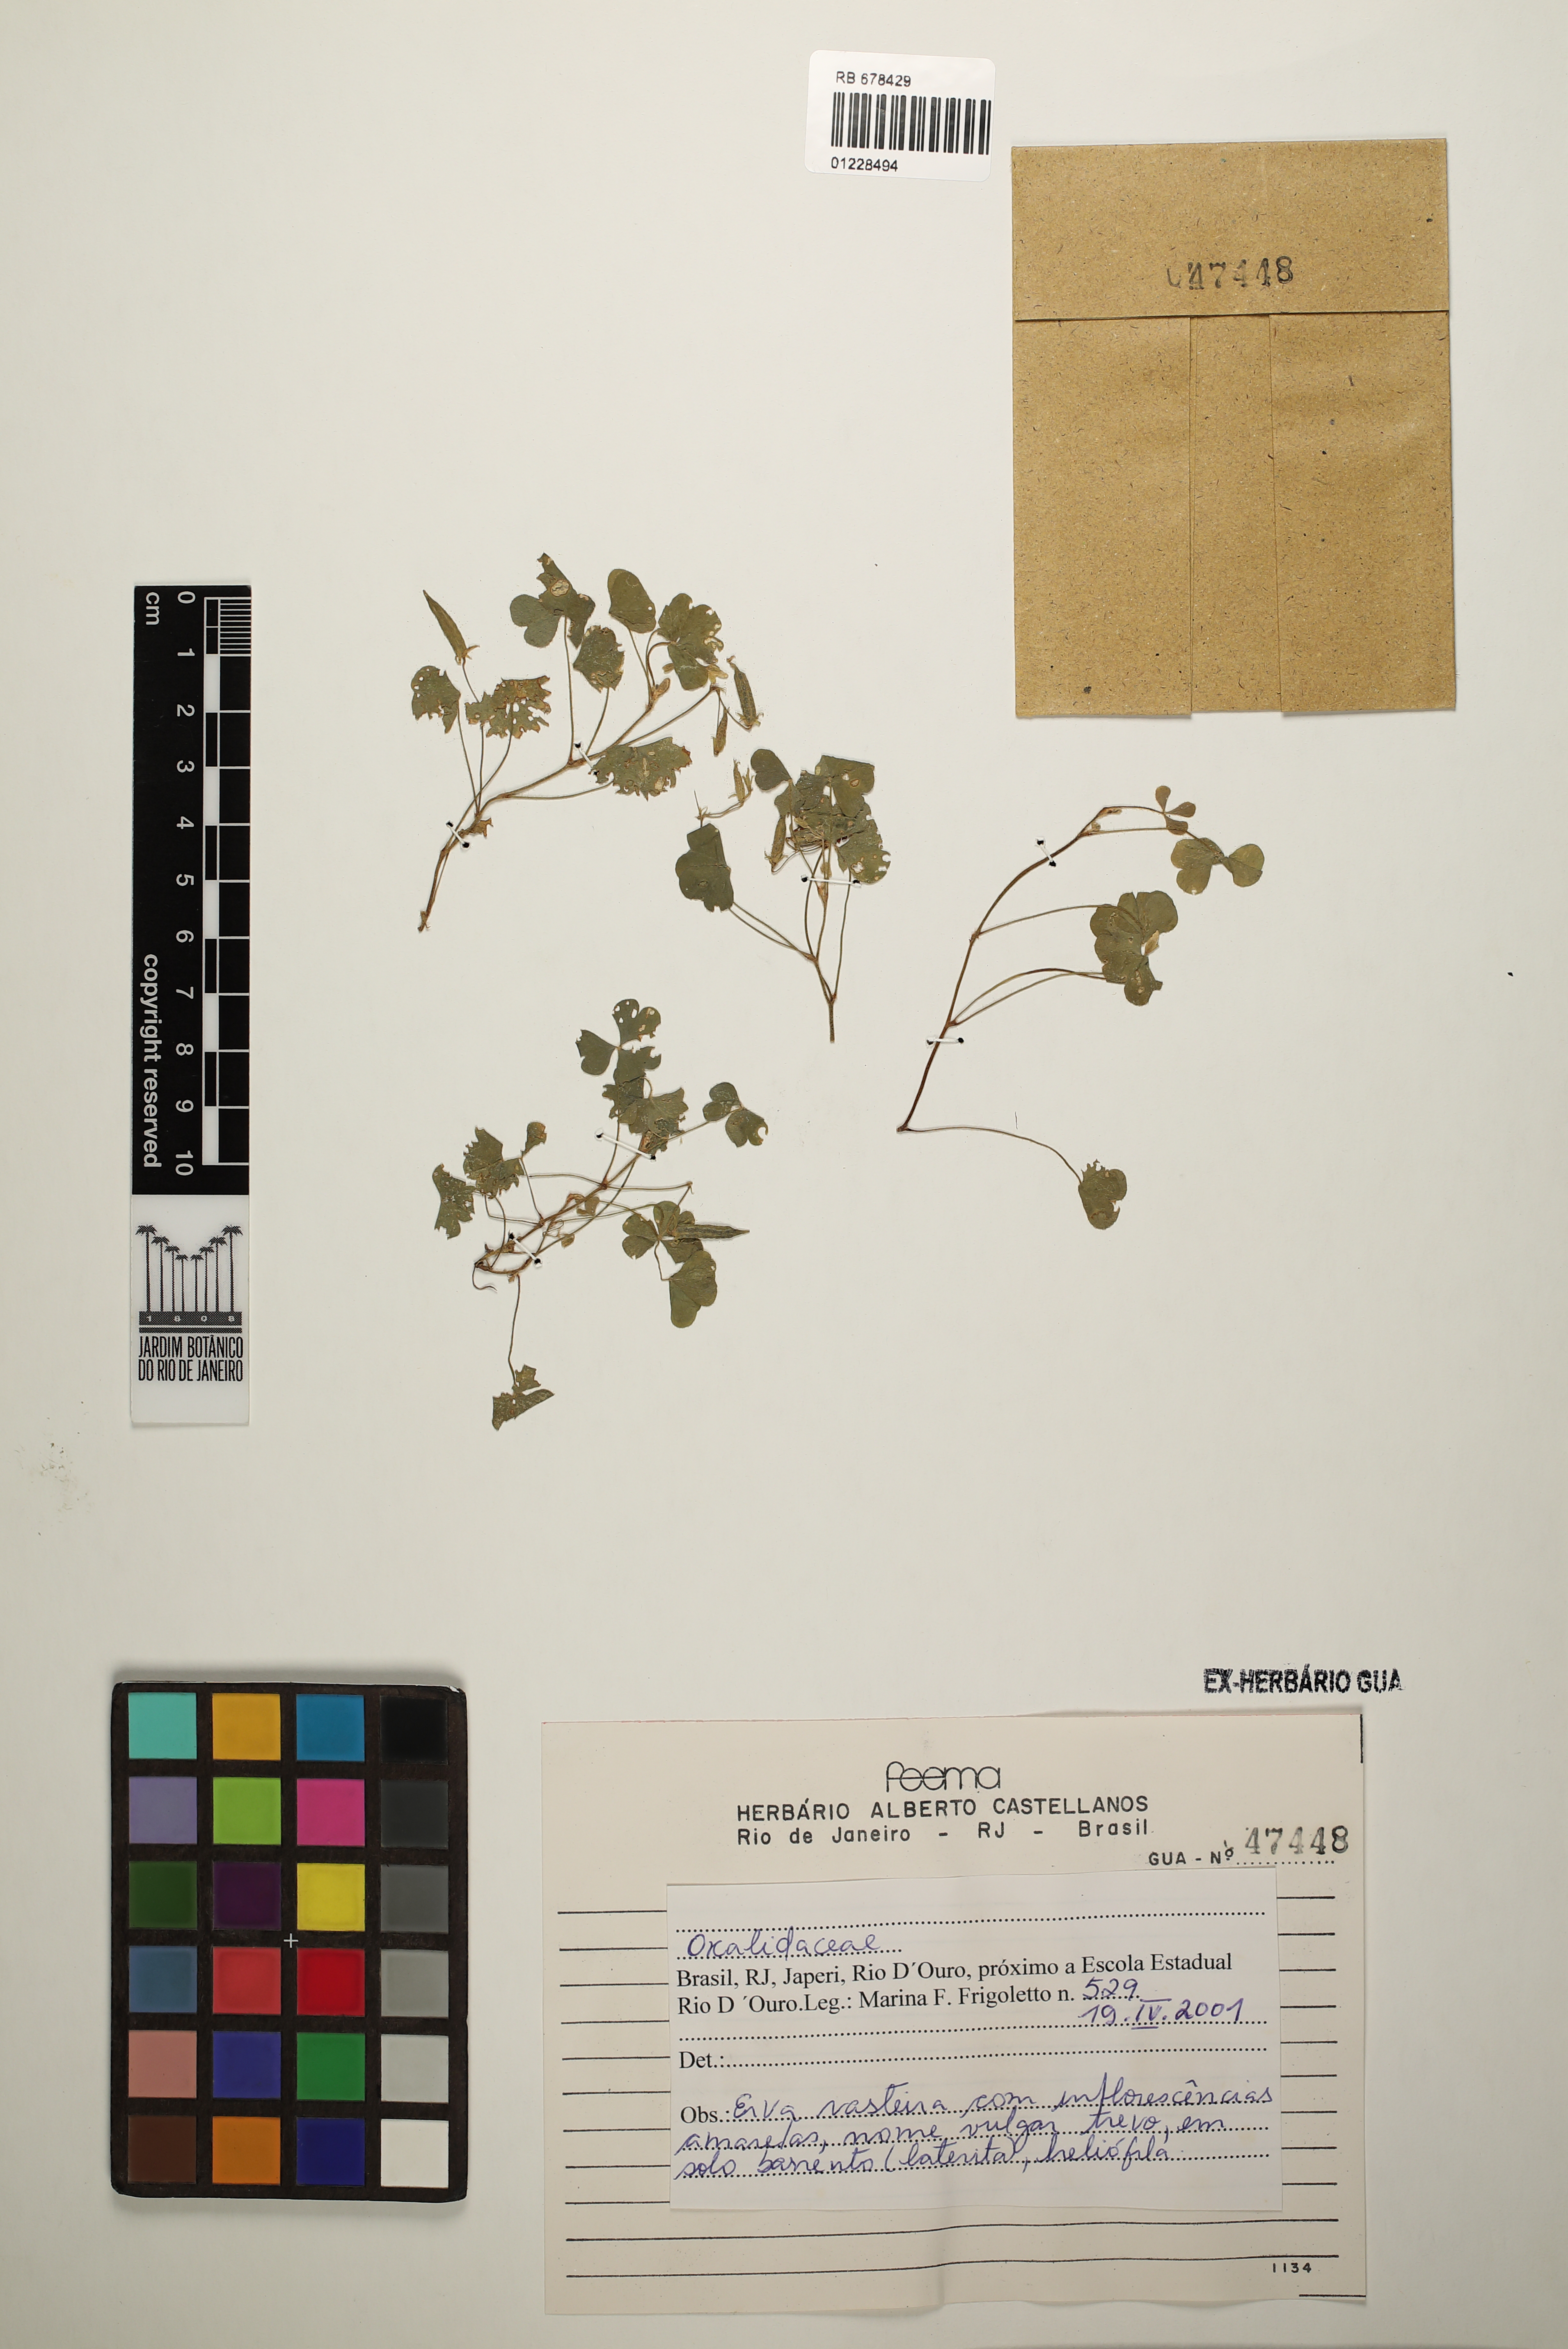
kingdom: Plantae
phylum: Tracheophyta
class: Magnoliopsida
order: Oxalidales
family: Oxalidaceae
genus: Oxalis
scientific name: Oxalis corniculata
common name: Procumbent yellow-sorrel
